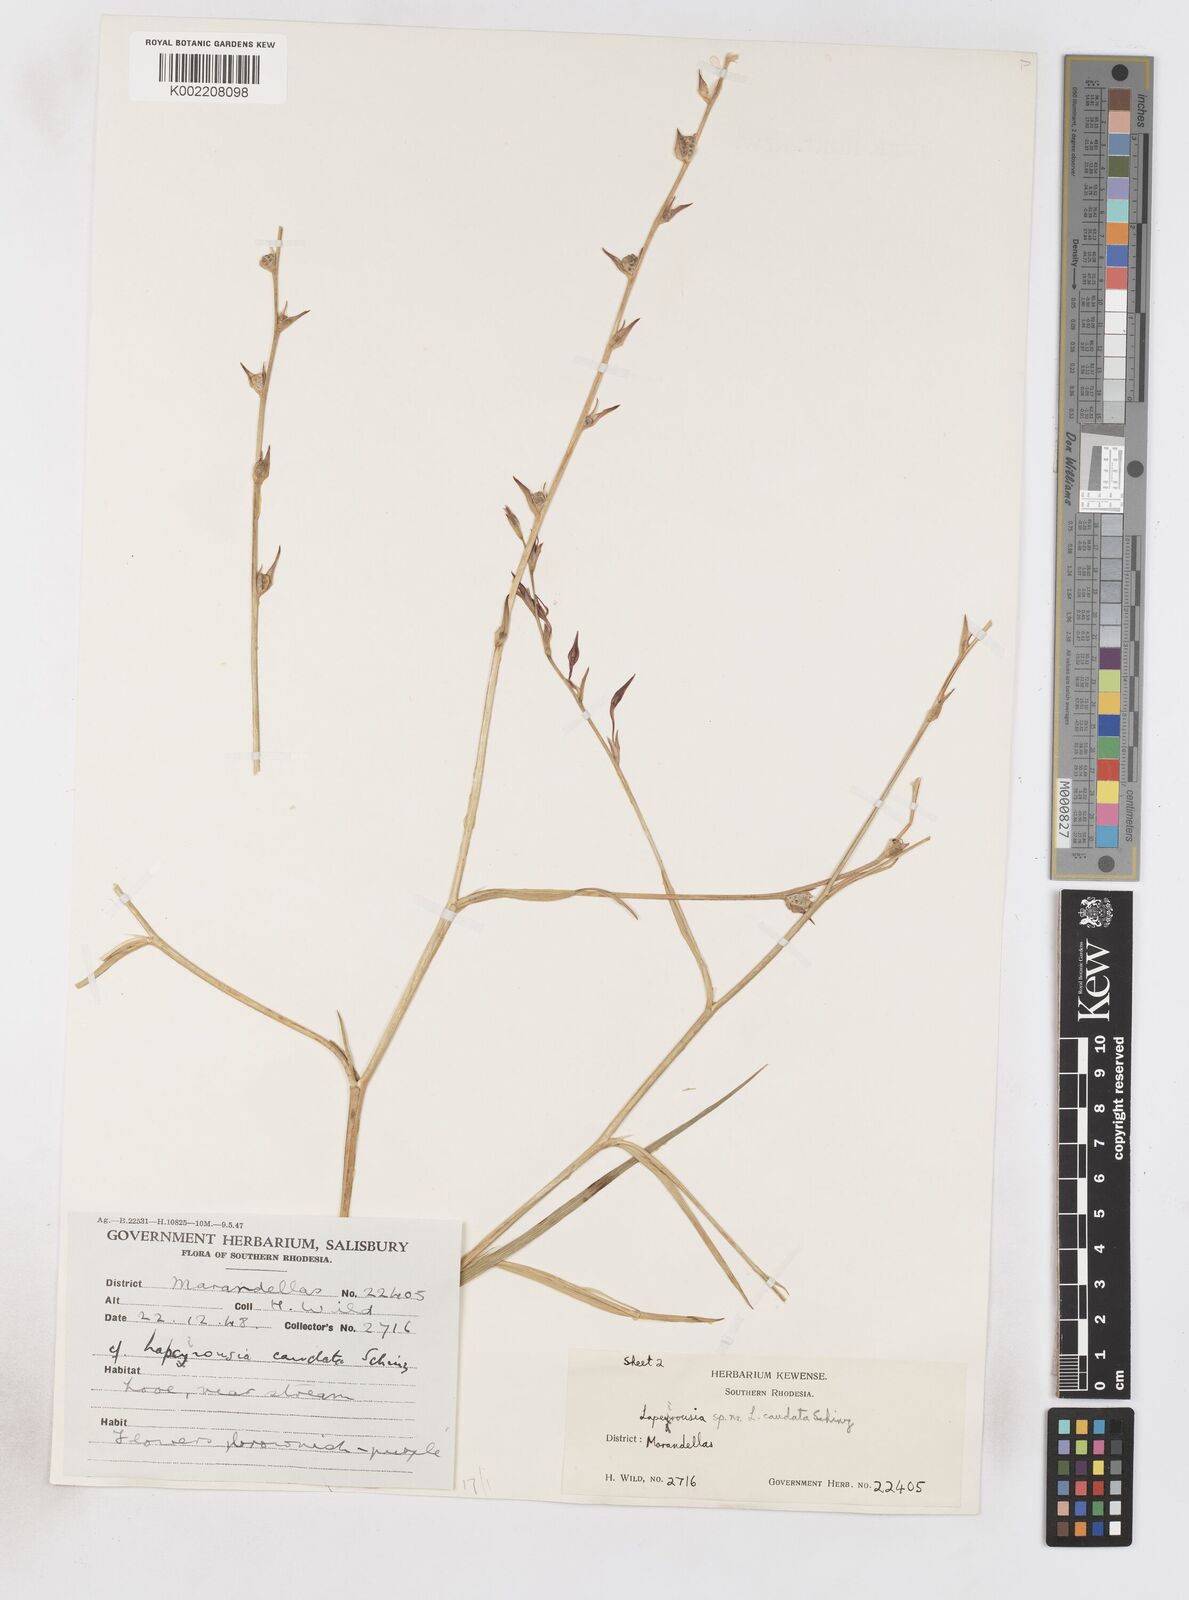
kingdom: Plantae
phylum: Tracheophyta
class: Liliopsida
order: Asparagales
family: Iridaceae
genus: Lapeirousia
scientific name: Lapeirousia caudata
